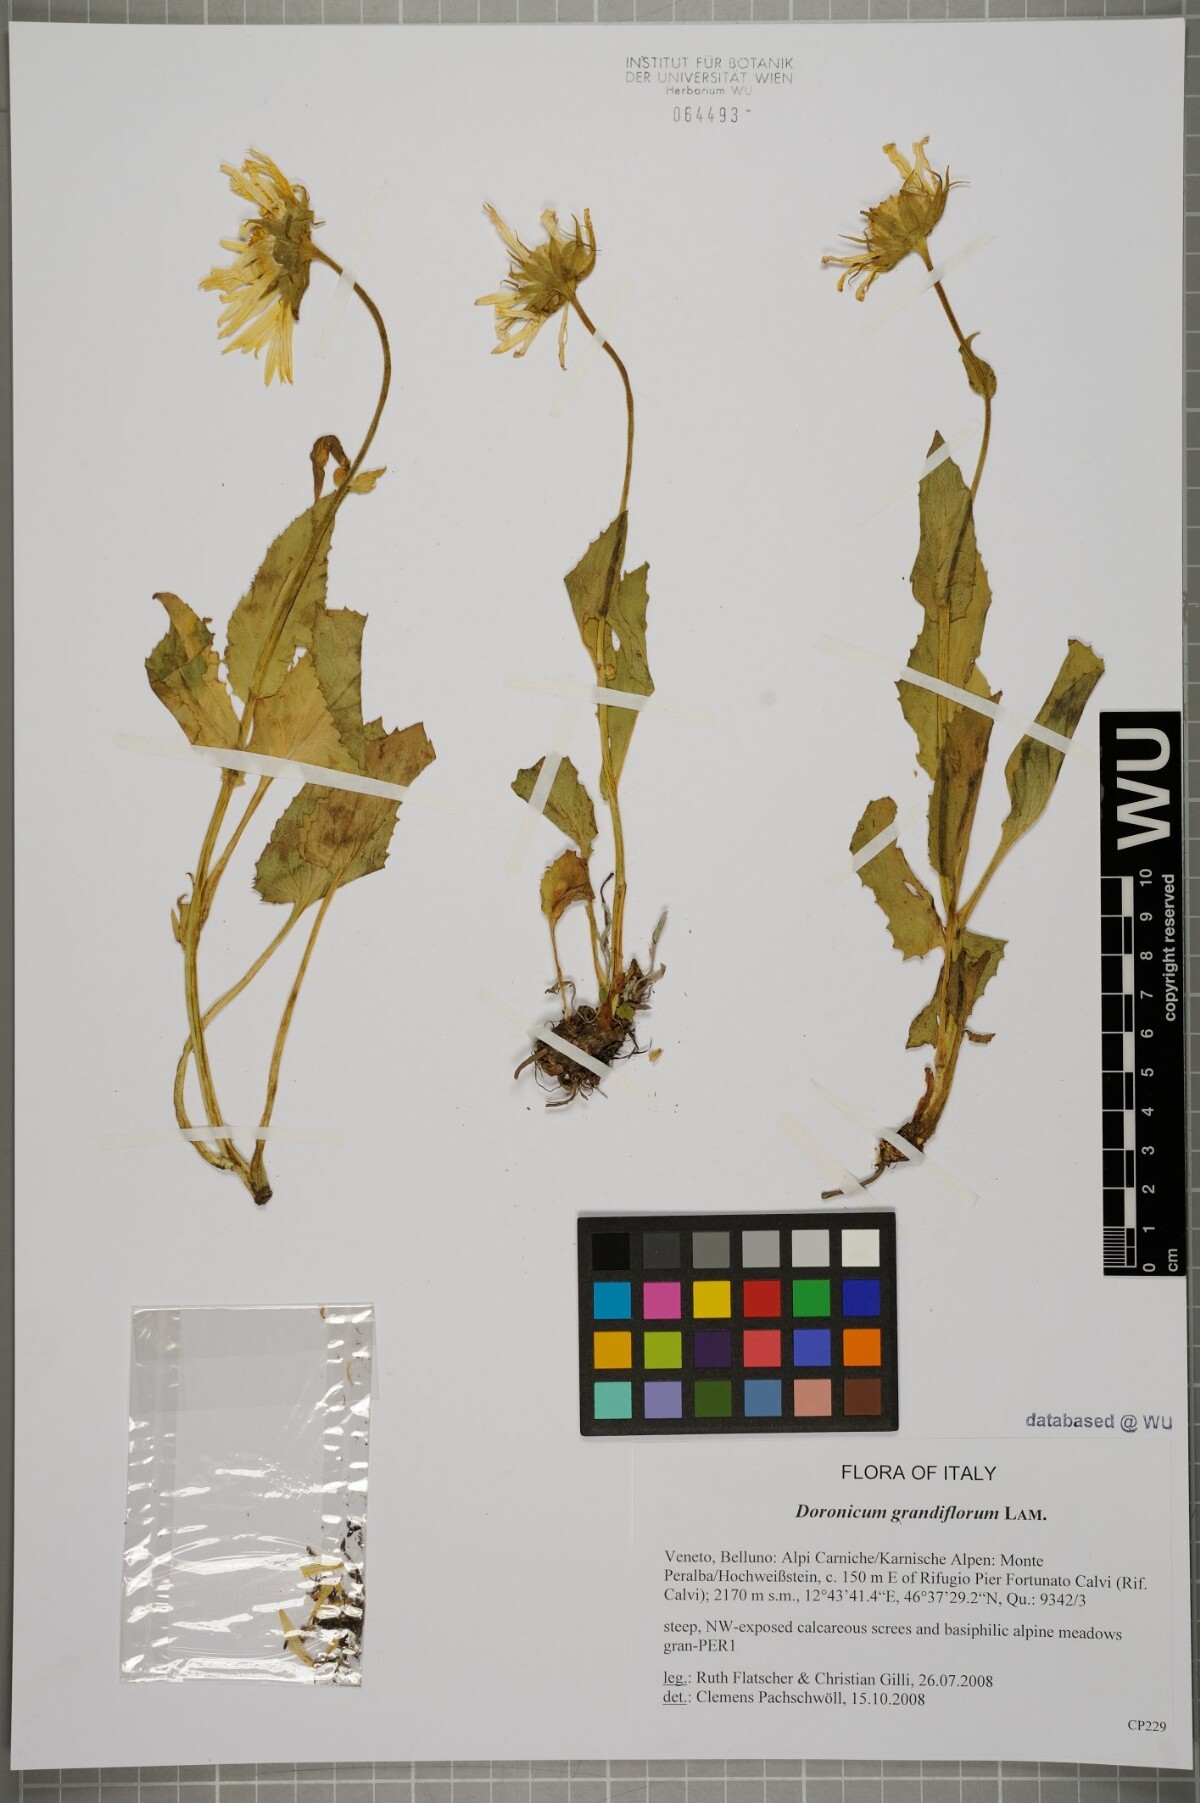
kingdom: Plantae
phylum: Tracheophyta
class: Magnoliopsida
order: Asterales
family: Asteraceae
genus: Doronicum
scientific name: Doronicum grandiflorum
